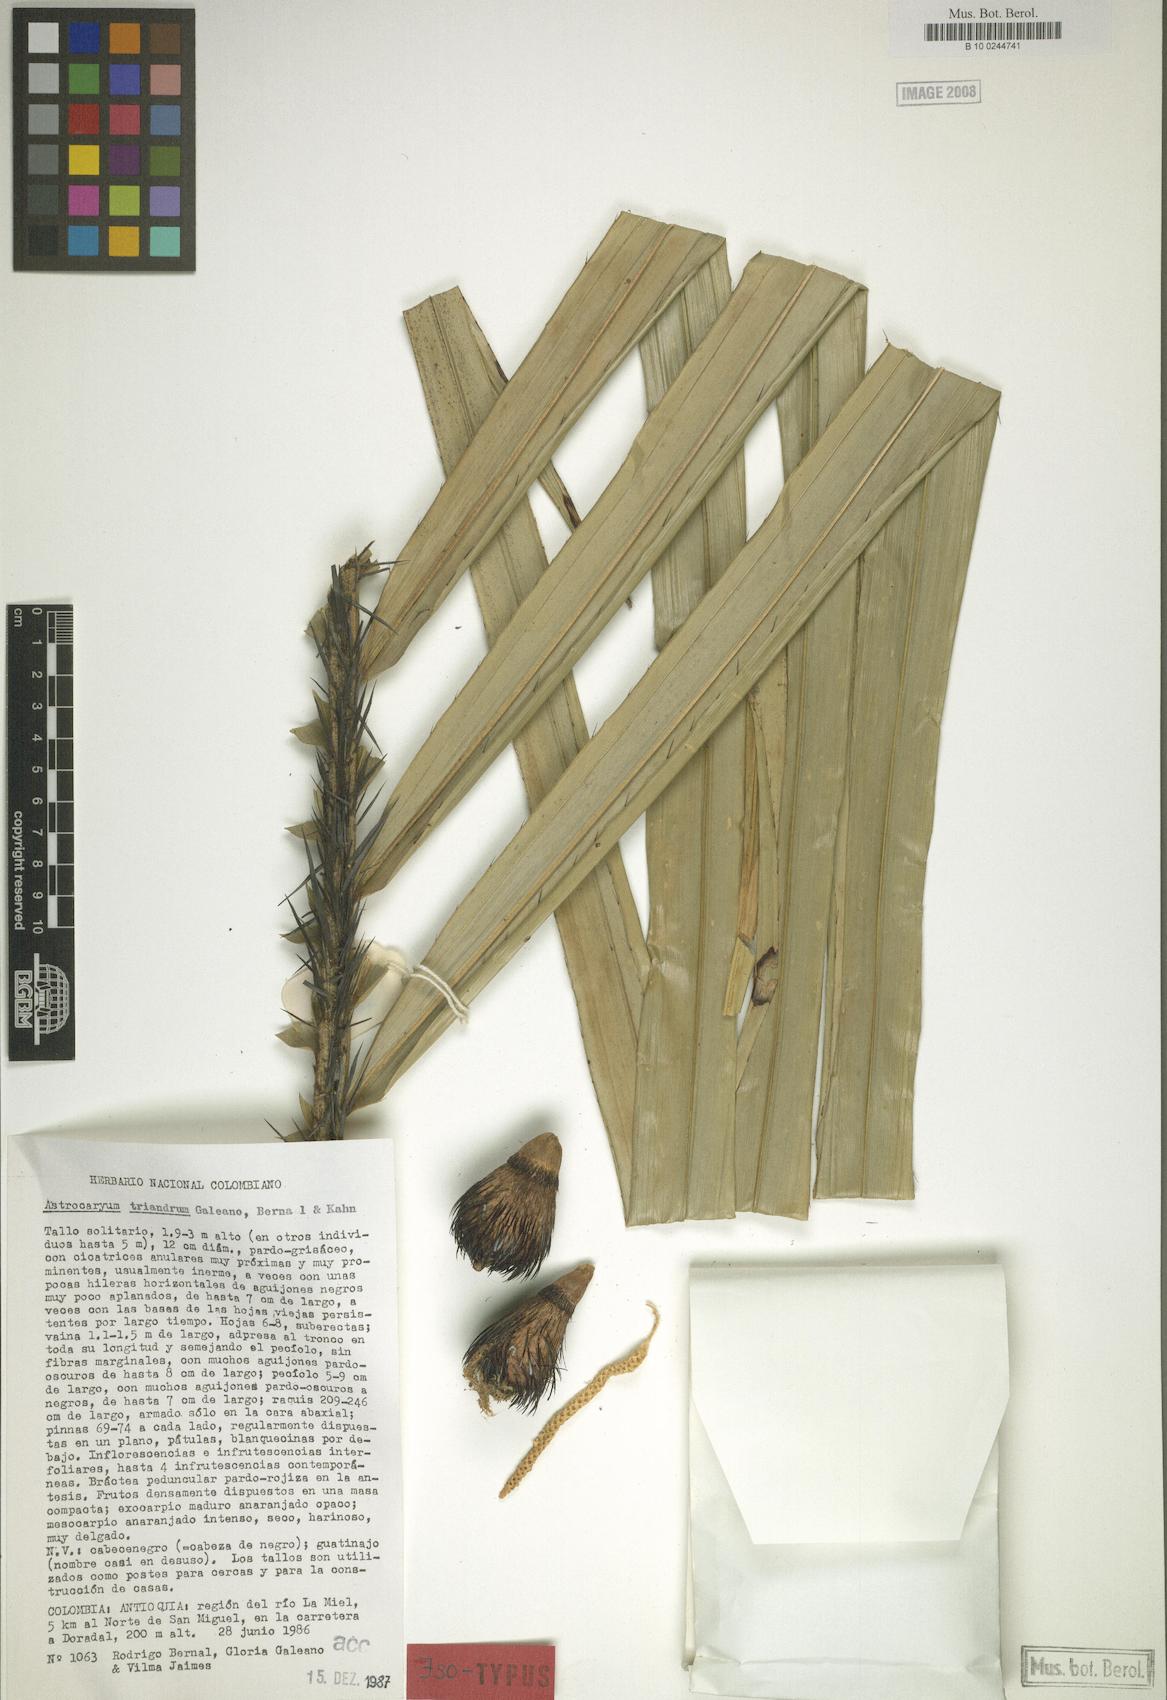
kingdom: Plantae
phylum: Tracheophyta
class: Liliopsida
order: Arecales
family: Arecaceae
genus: Astrocaryum
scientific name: Astrocaryum triandrum
